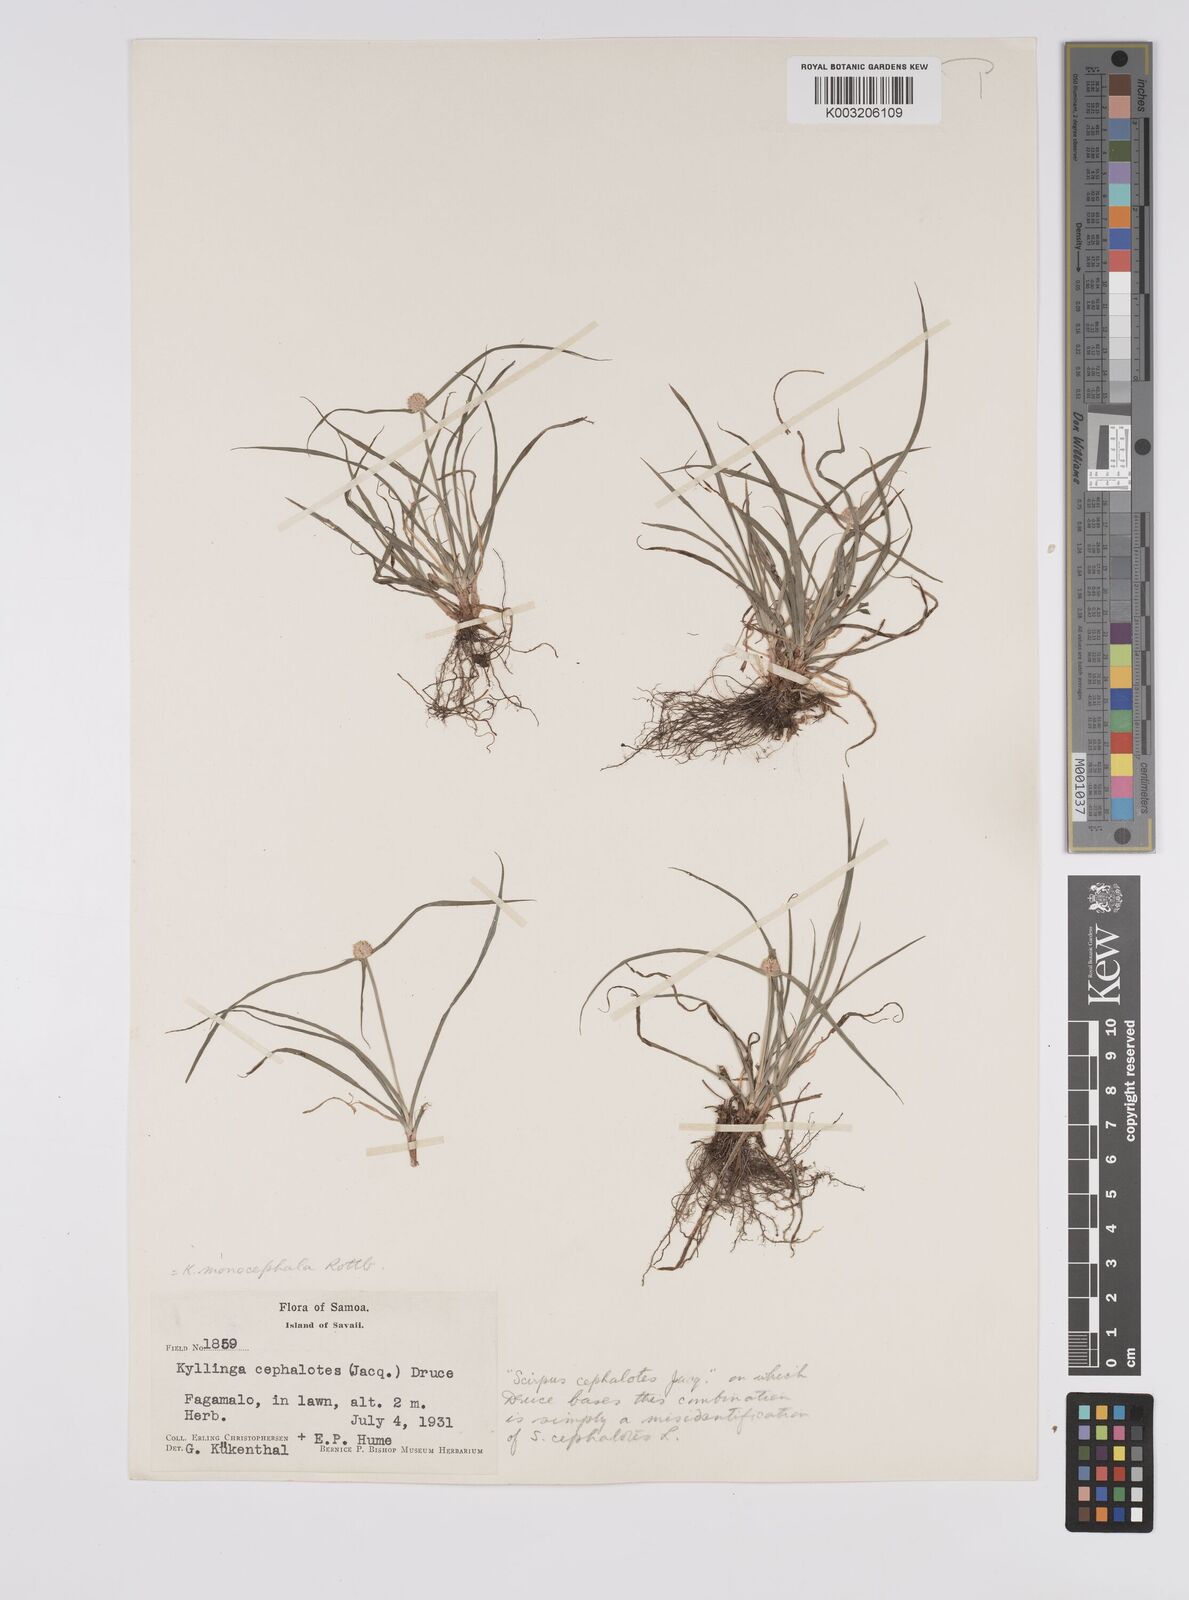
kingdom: Plantae
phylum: Tracheophyta
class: Liliopsida
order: Poales
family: Cyperaceae
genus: Cyperus
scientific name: Cyperus nemoralis
